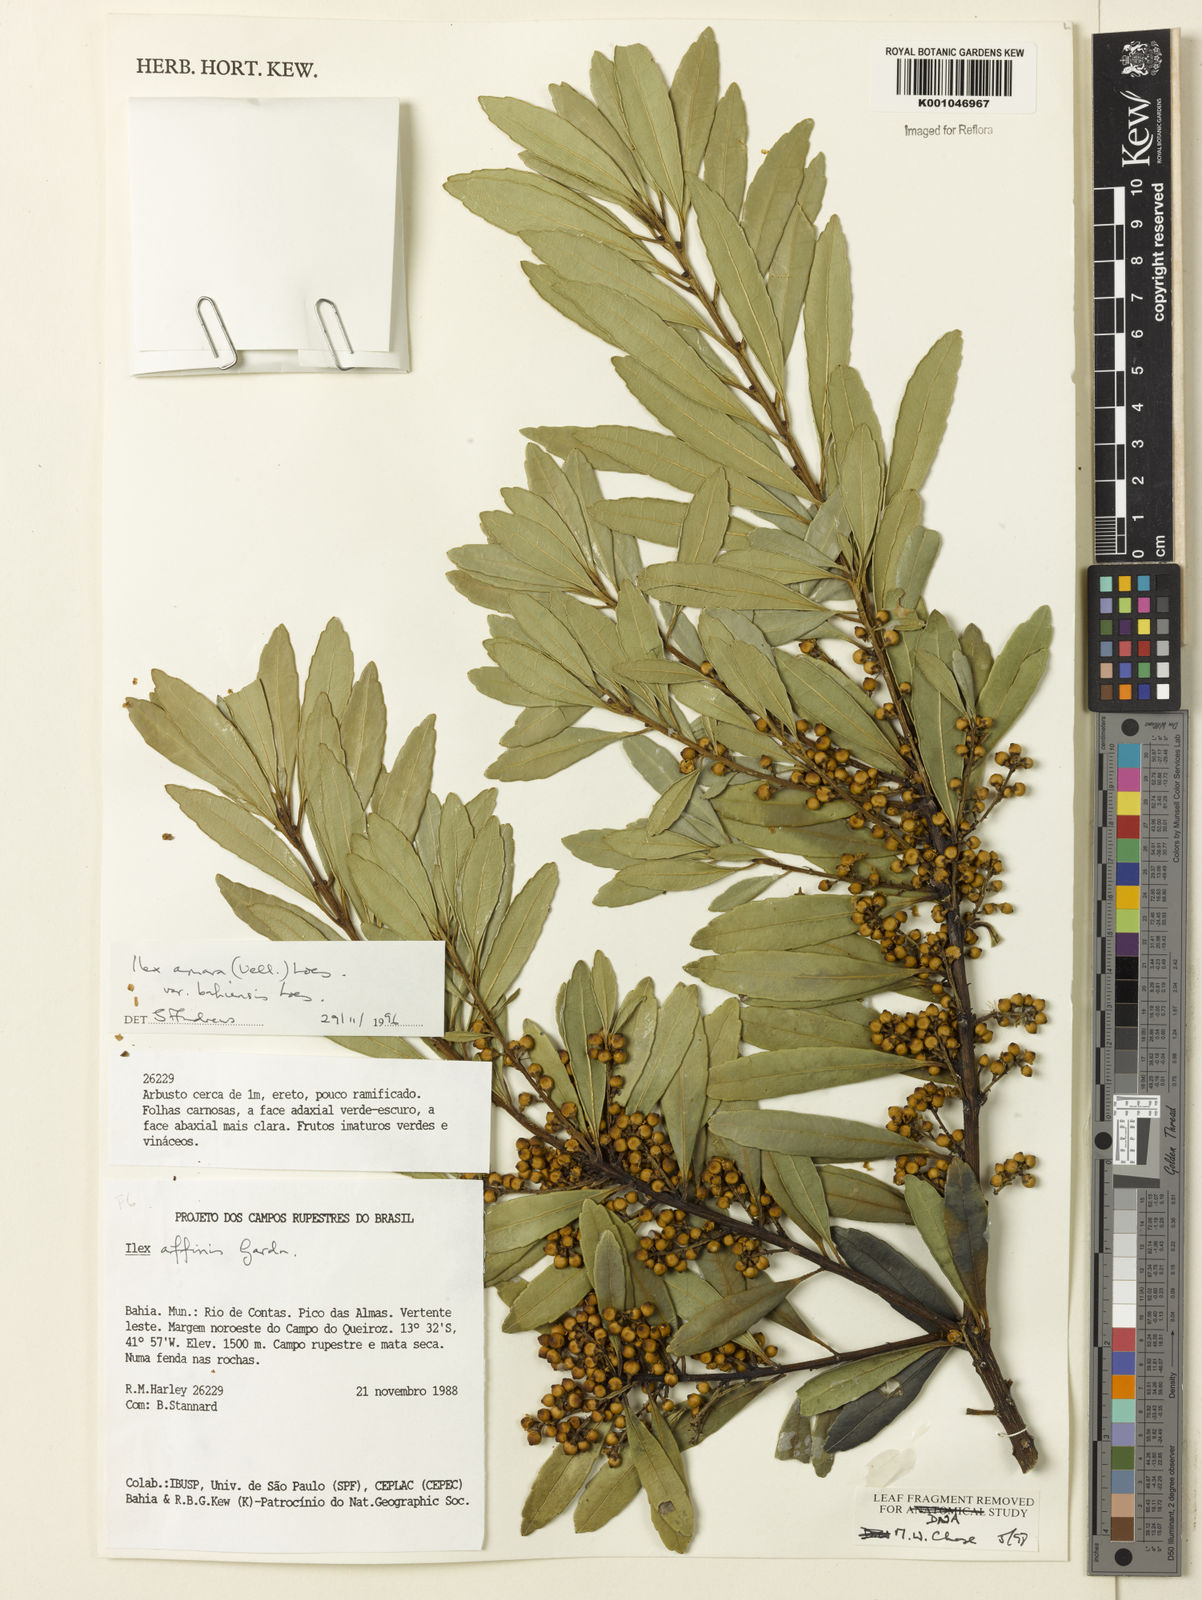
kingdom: Plantae
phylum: Tracheophyta
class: Magnoliopsida
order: Aquifoliales
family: Aquifoliaceae
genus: Ilex
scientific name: Ilex dumosa
